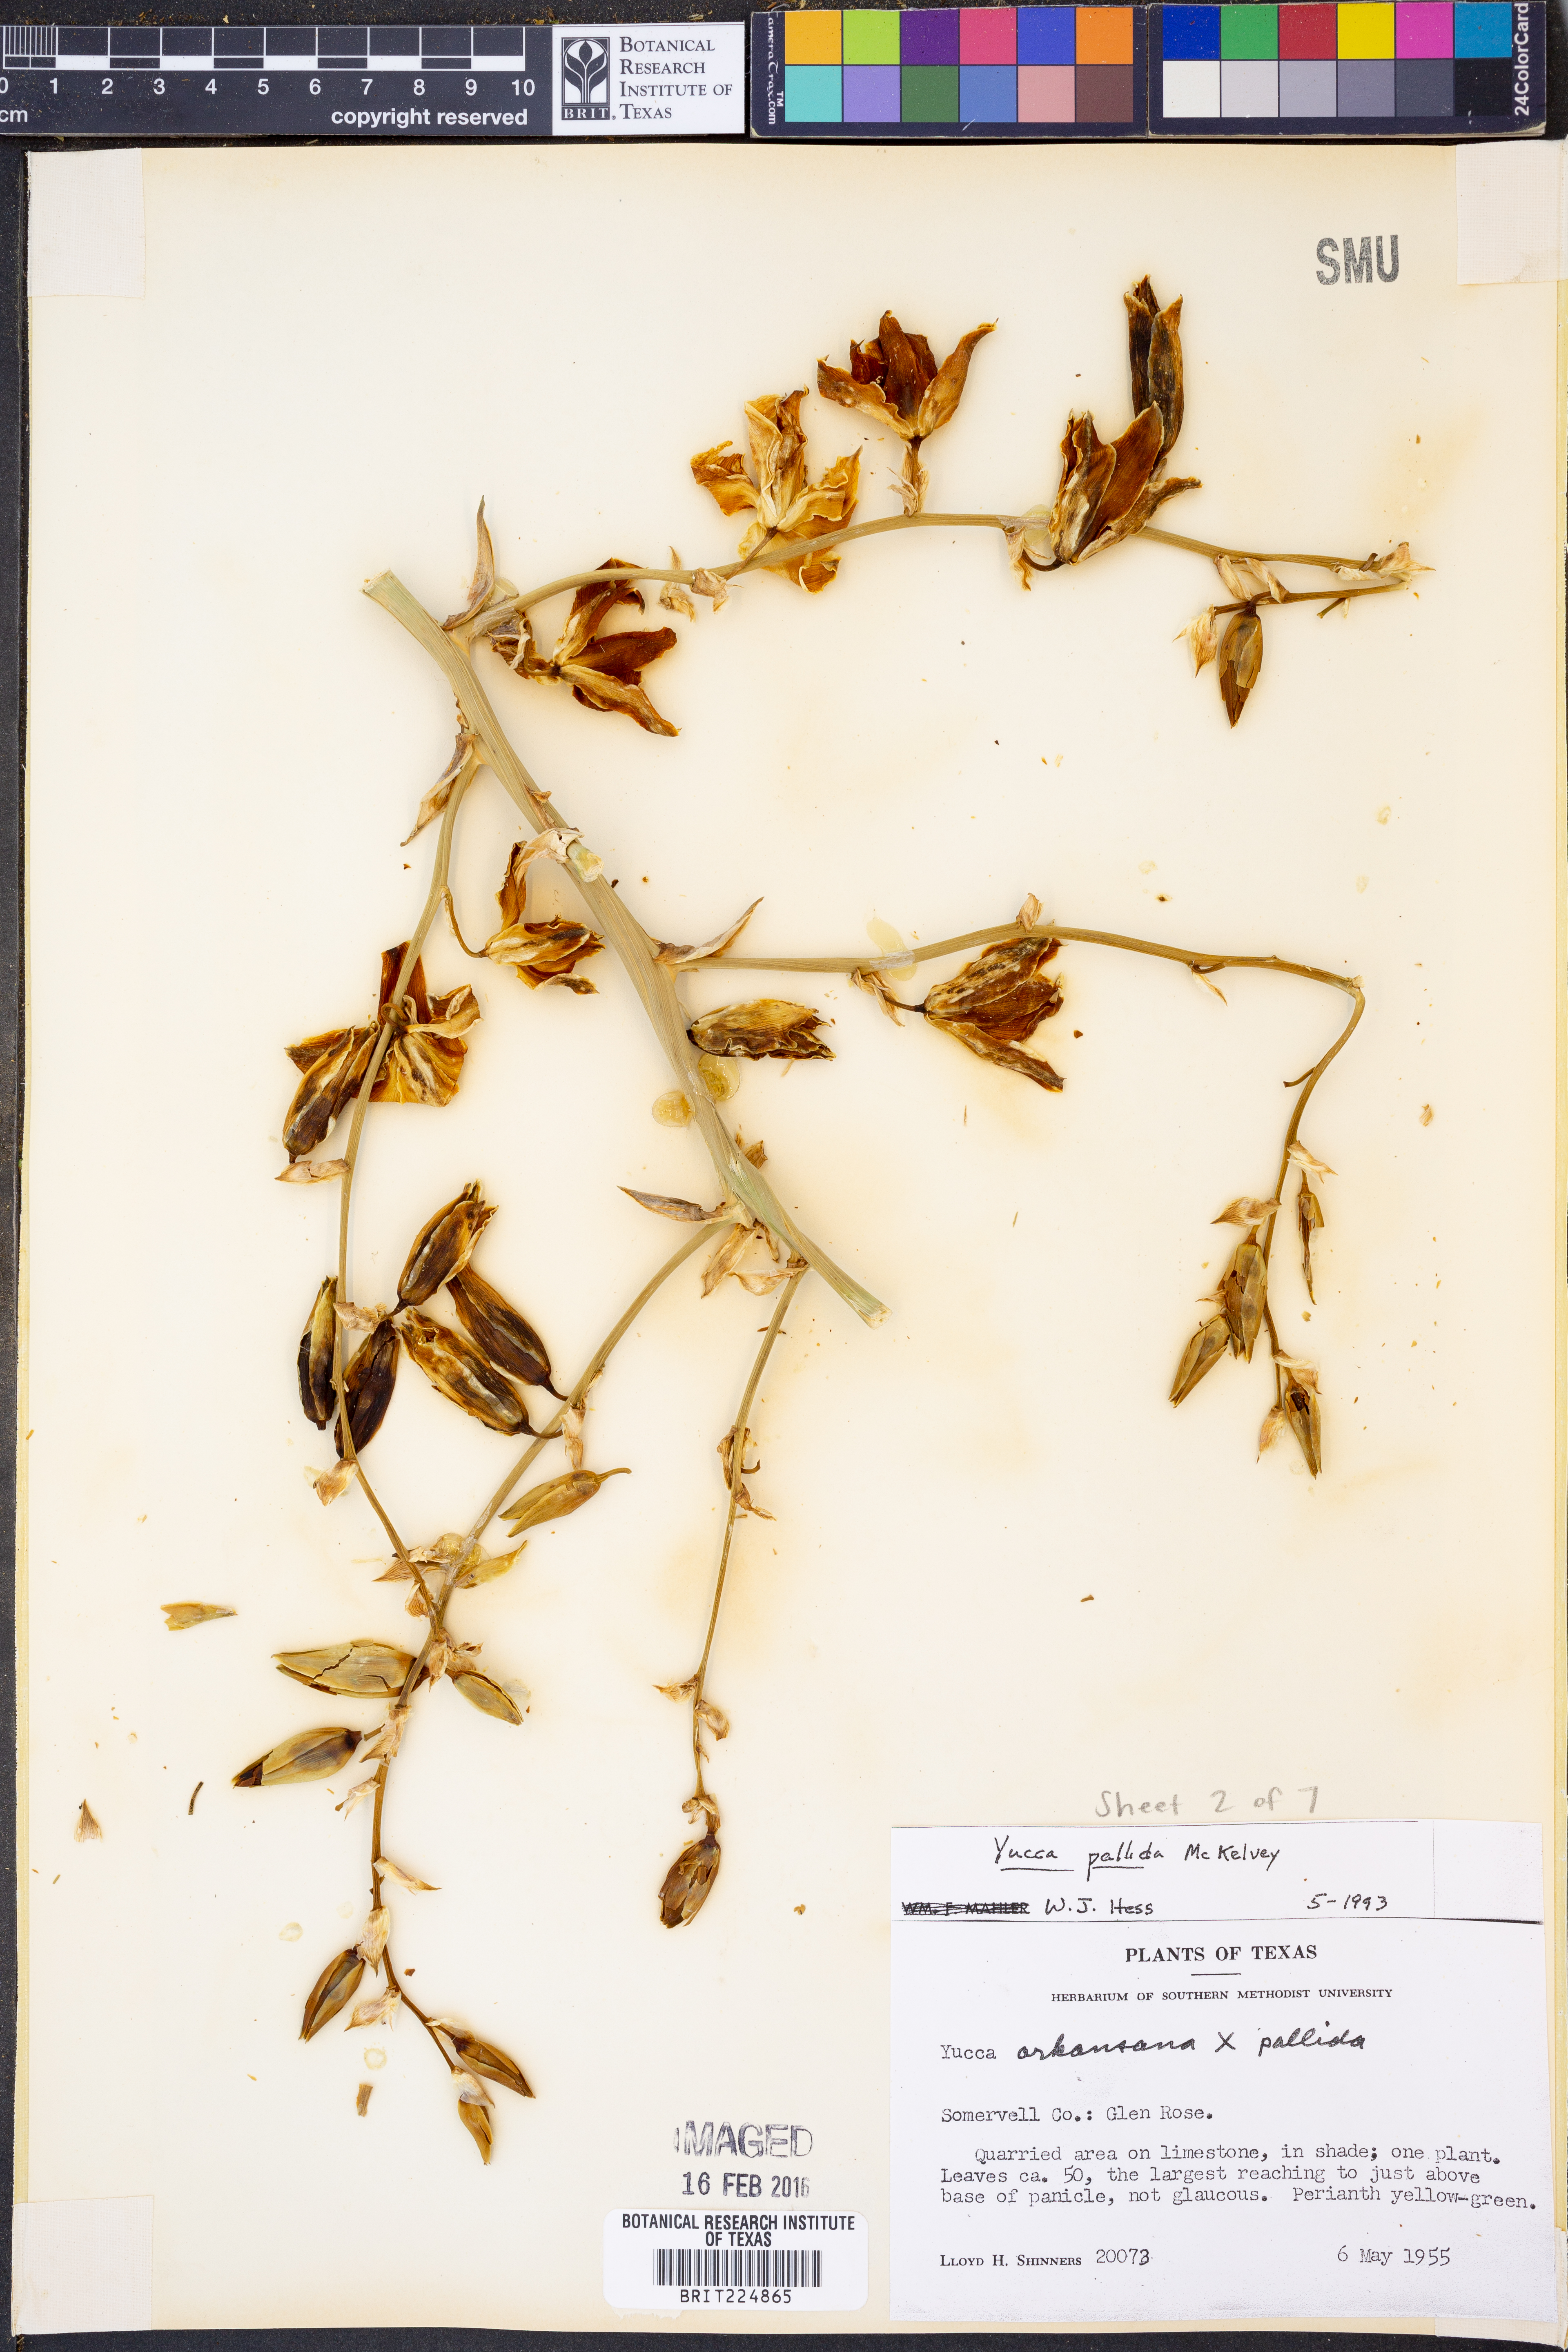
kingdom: Plantae
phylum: Tracheophyta
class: Liliopsida
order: Asparagales
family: Asparagaceae
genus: Yucca
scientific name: Yucca pallida
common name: Pale leaf yucca
